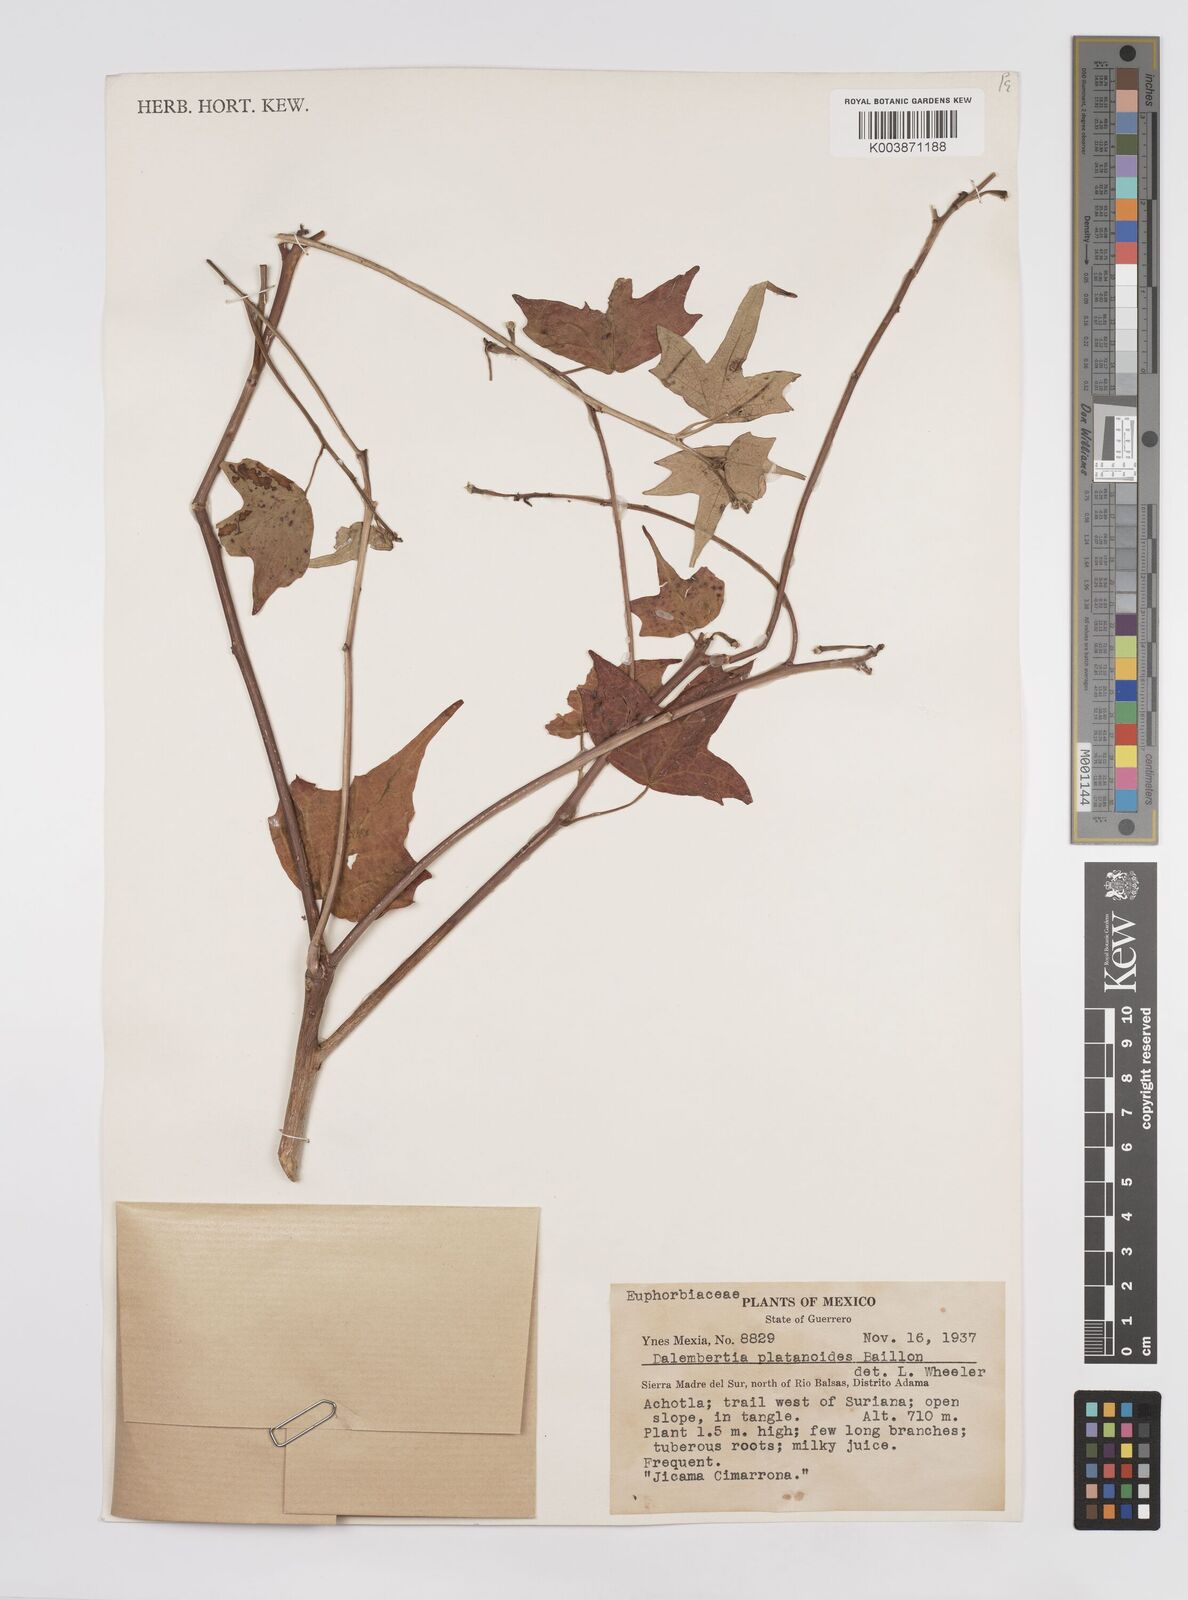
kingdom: Plantae
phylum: Tracheophyta
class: Magnoliopsida
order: Malpighiales
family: Euphorbiaceae
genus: Dalembertia
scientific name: Dalembertia platanoides
